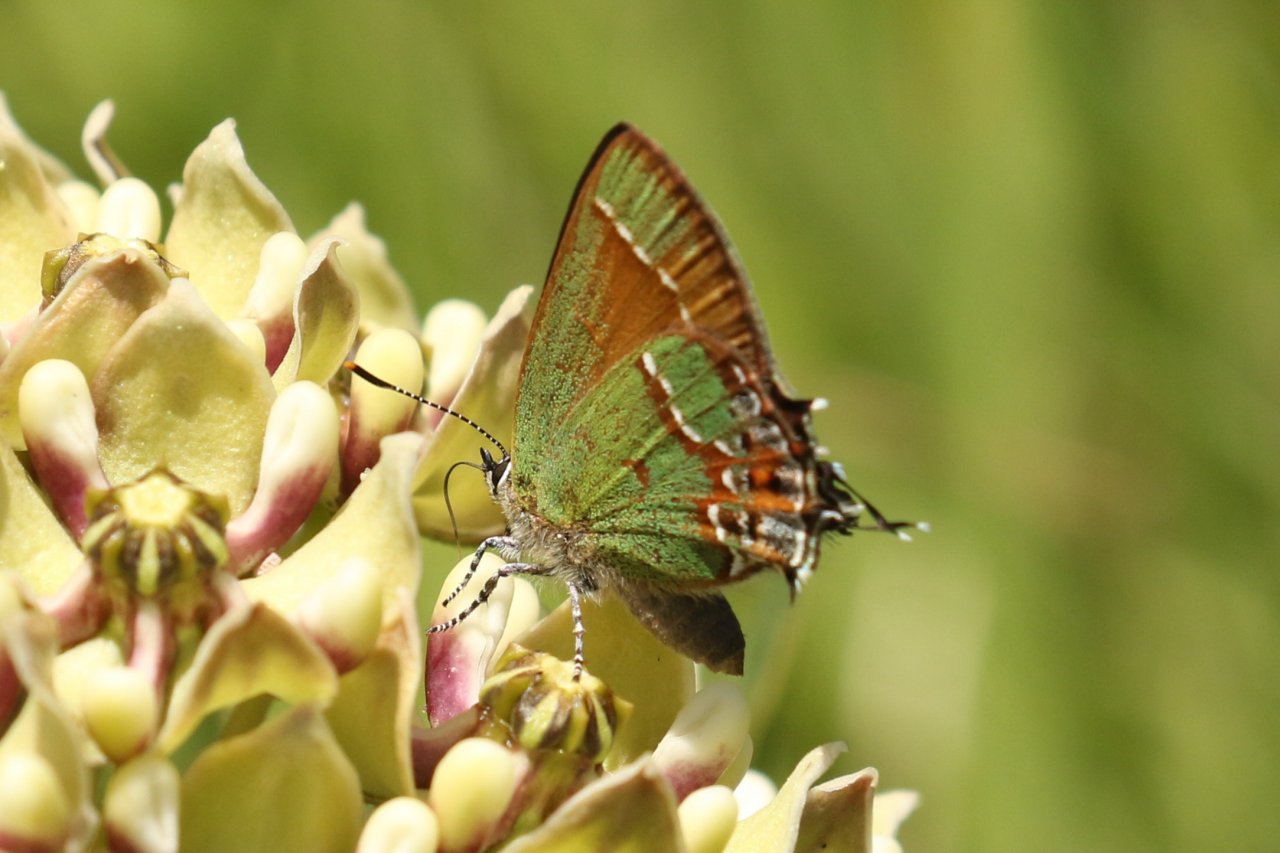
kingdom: Animalia
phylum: Arthropoda
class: Insecta
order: Lepidoptera
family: Lycaenidae
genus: Mitoura
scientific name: Mitoura gryneus
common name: Juniper Hairstreak
